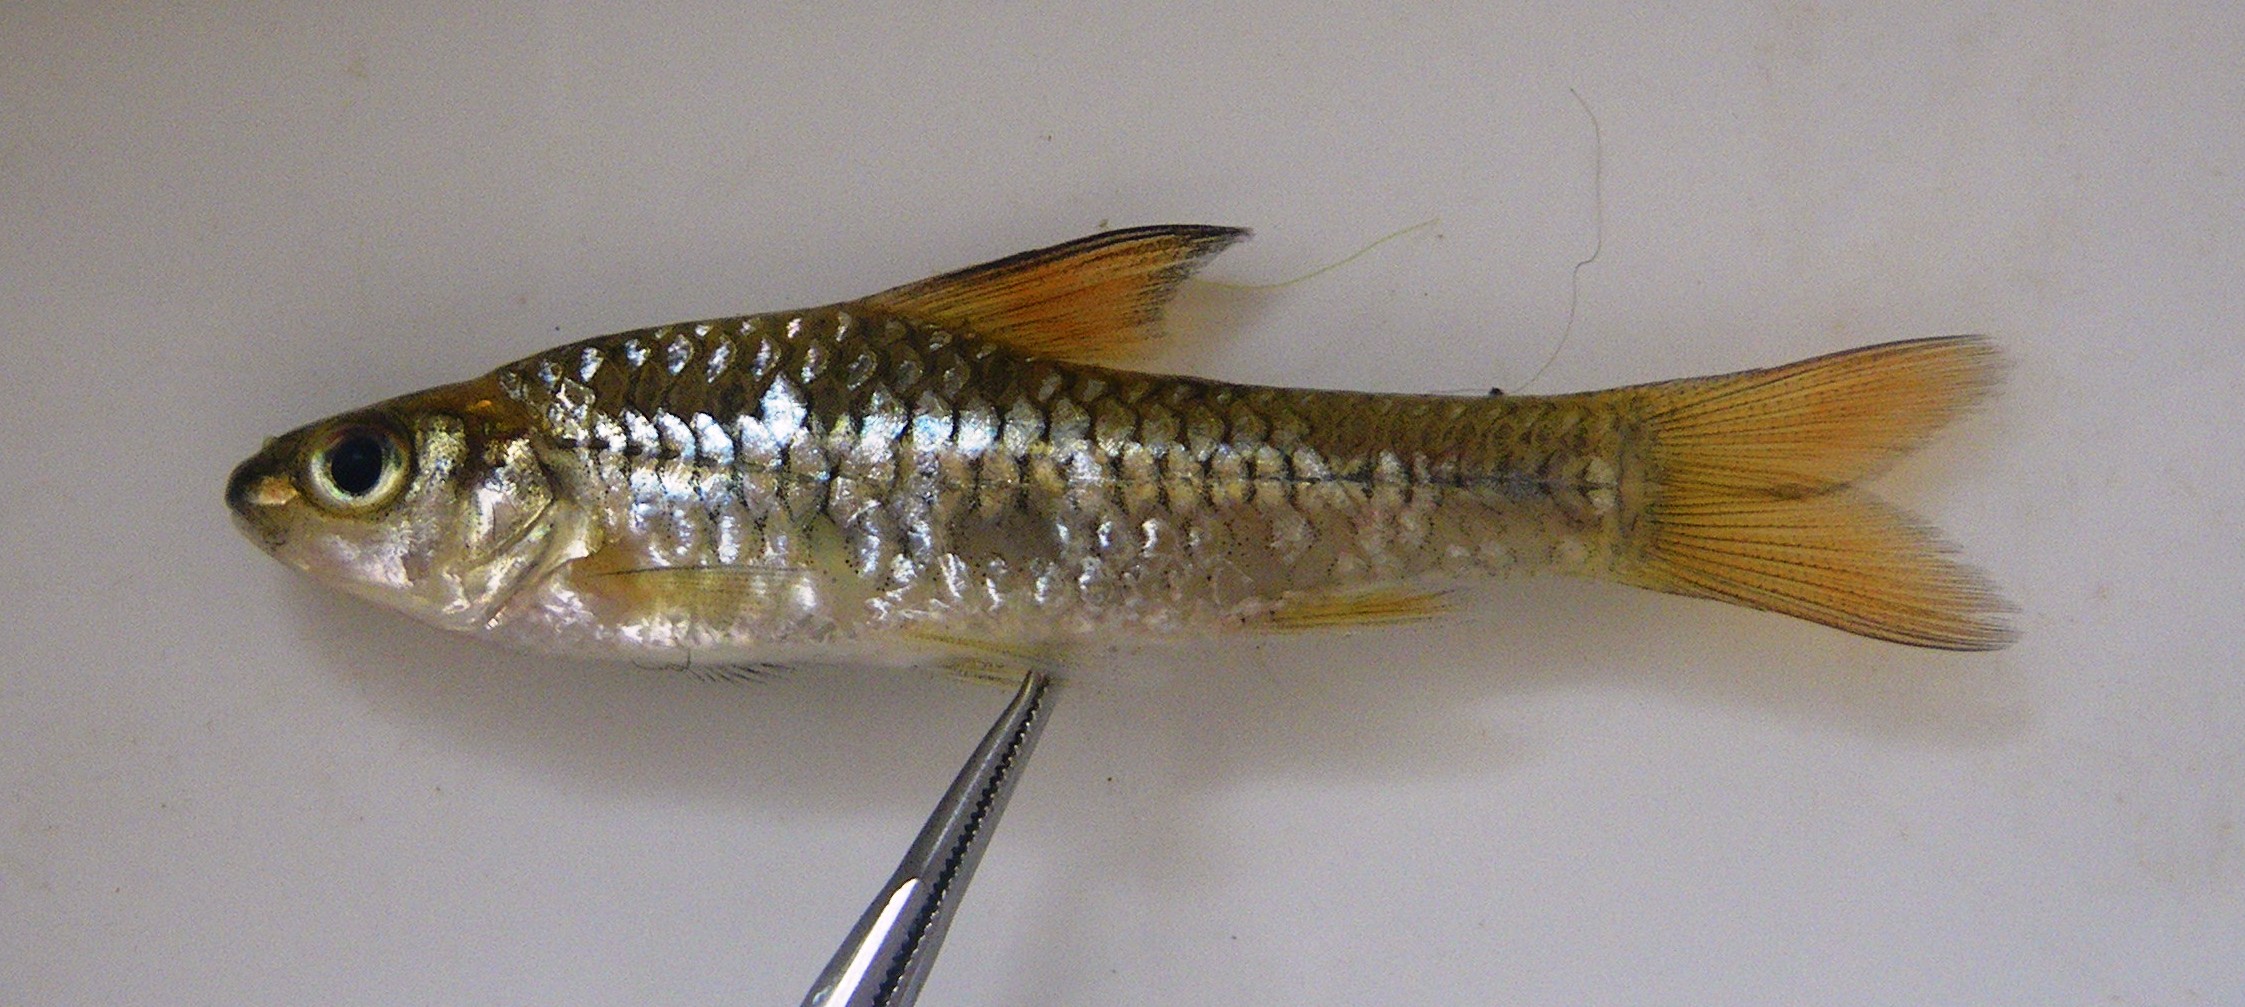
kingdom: Animalia
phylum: Chordata
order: Cypriniformes
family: Cyprinidae
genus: Enteromius
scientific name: Enteromius radiatus
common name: Beira barb
